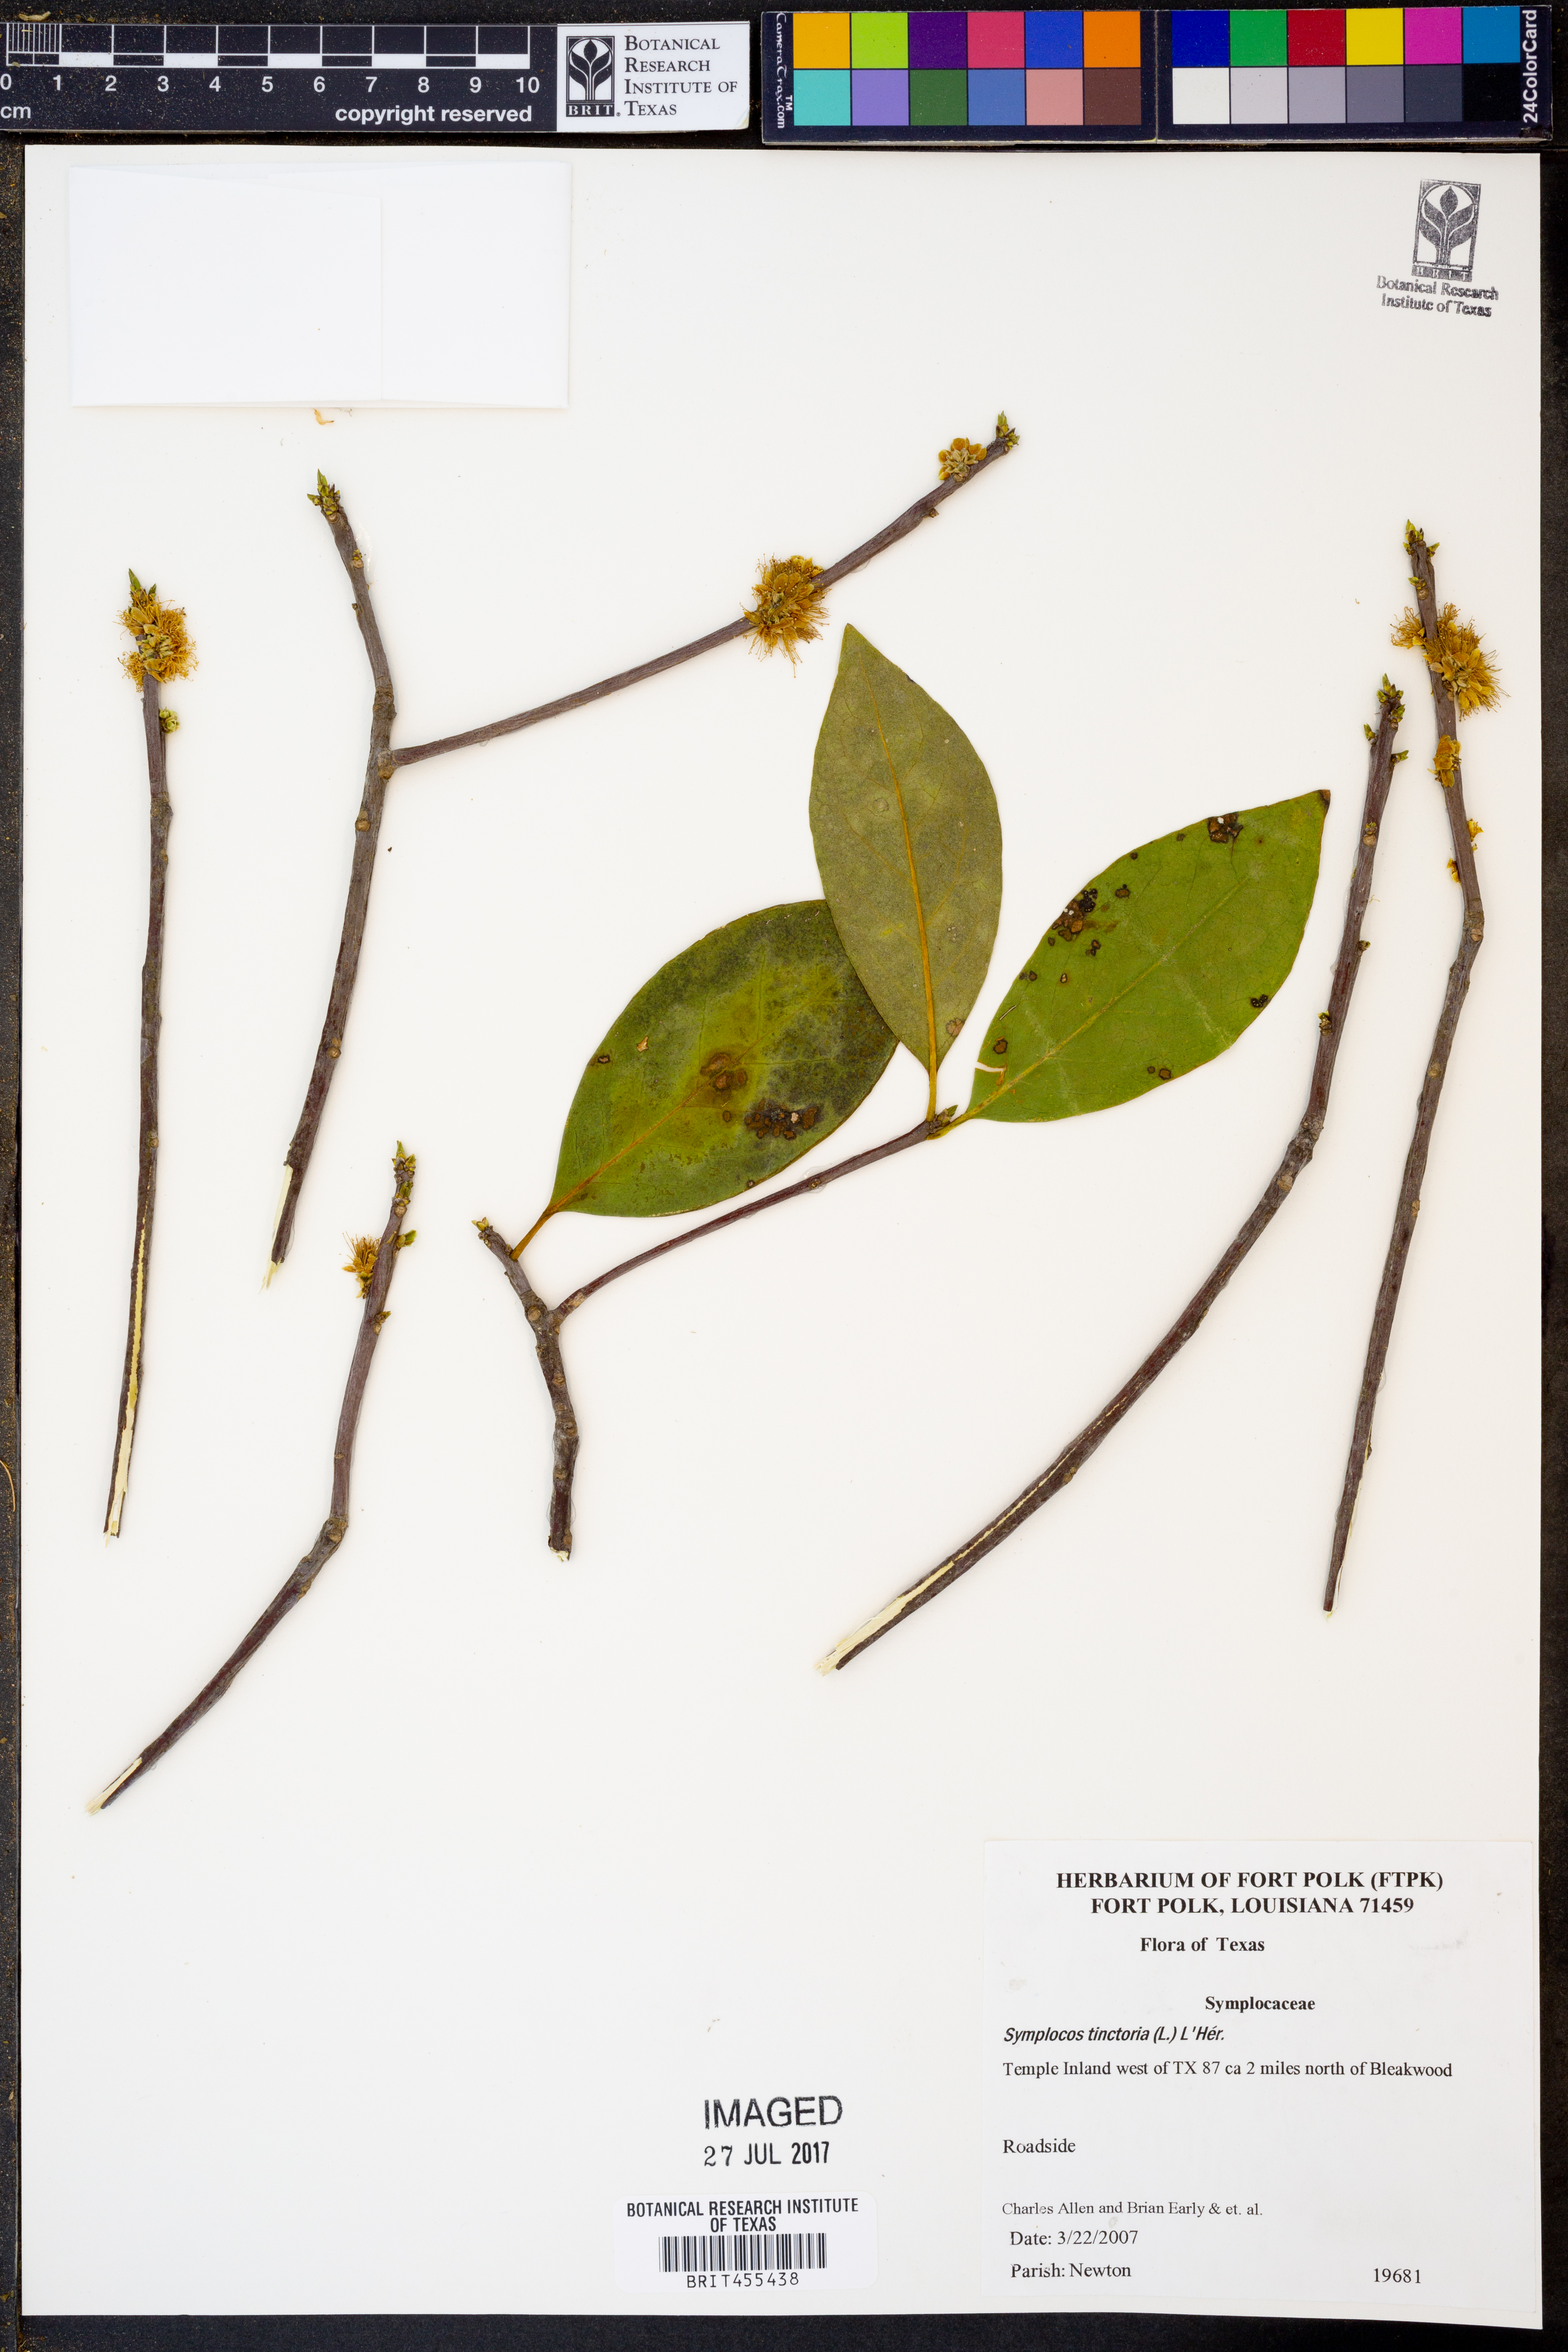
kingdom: Plantae
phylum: Tracheophyta
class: Magnoliopsida
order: Ericales
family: Symplocaceae
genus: Symplocos
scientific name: Symplocos tinctoria
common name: Horse-sugar
